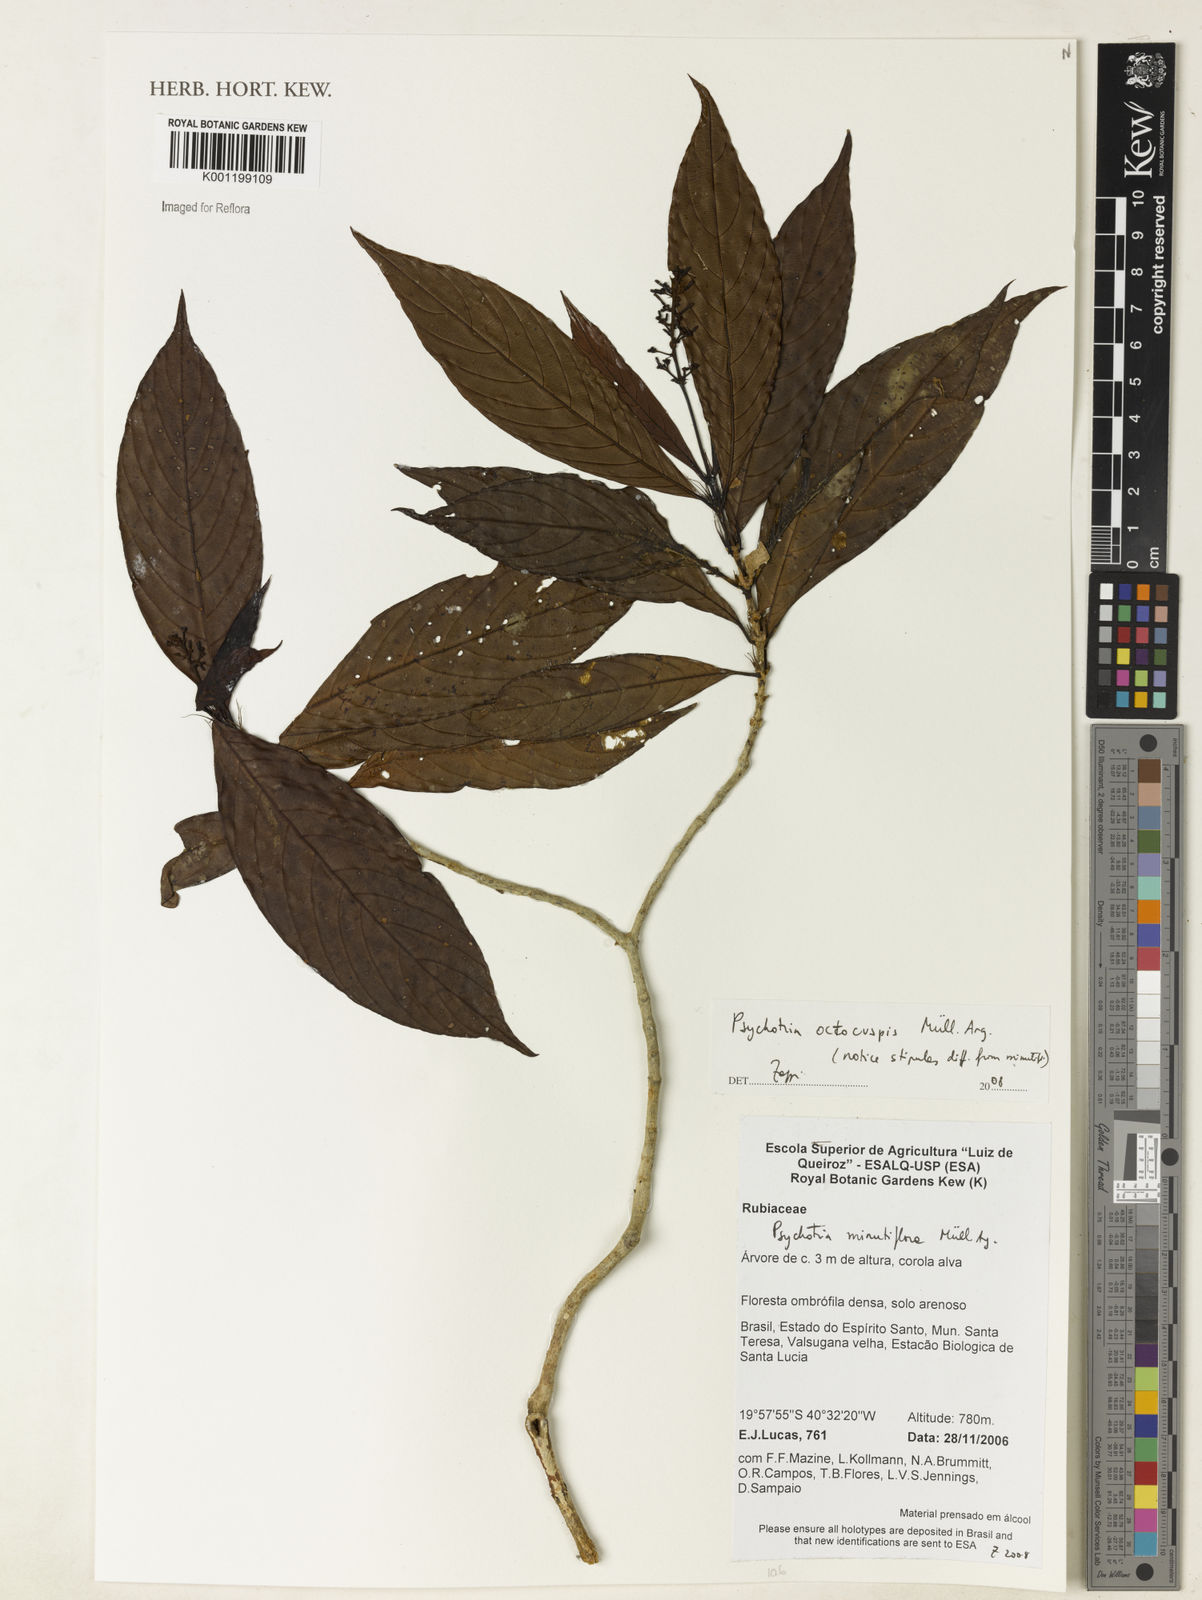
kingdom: Plantae
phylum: Tracheophyta
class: Magnoliopsida
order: Gentianales
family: Rubiaceae
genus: Psychotria
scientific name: Psychotria
